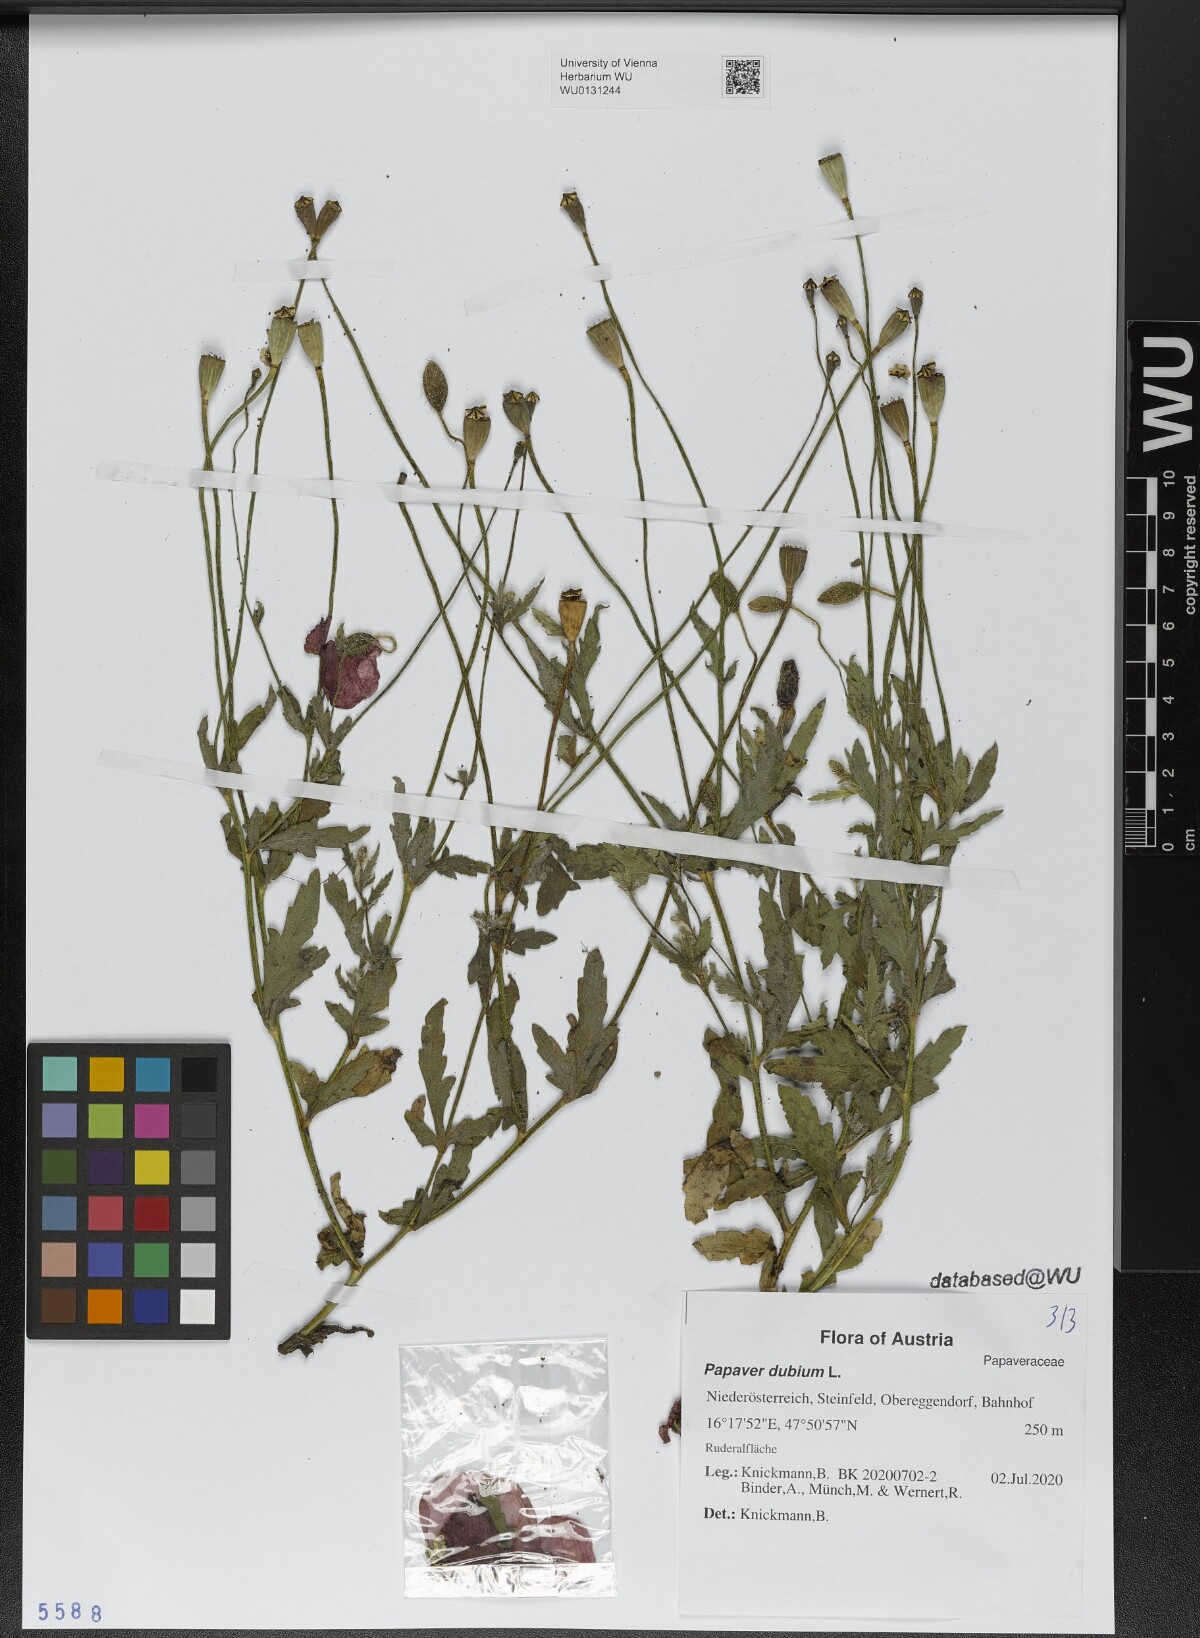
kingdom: Plantae
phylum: Tracheophyta
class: Magnoliopsida
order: Ranunculales
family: Papaveraceae
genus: Papaver
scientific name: Papaver dubium
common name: Long-headed poppy
